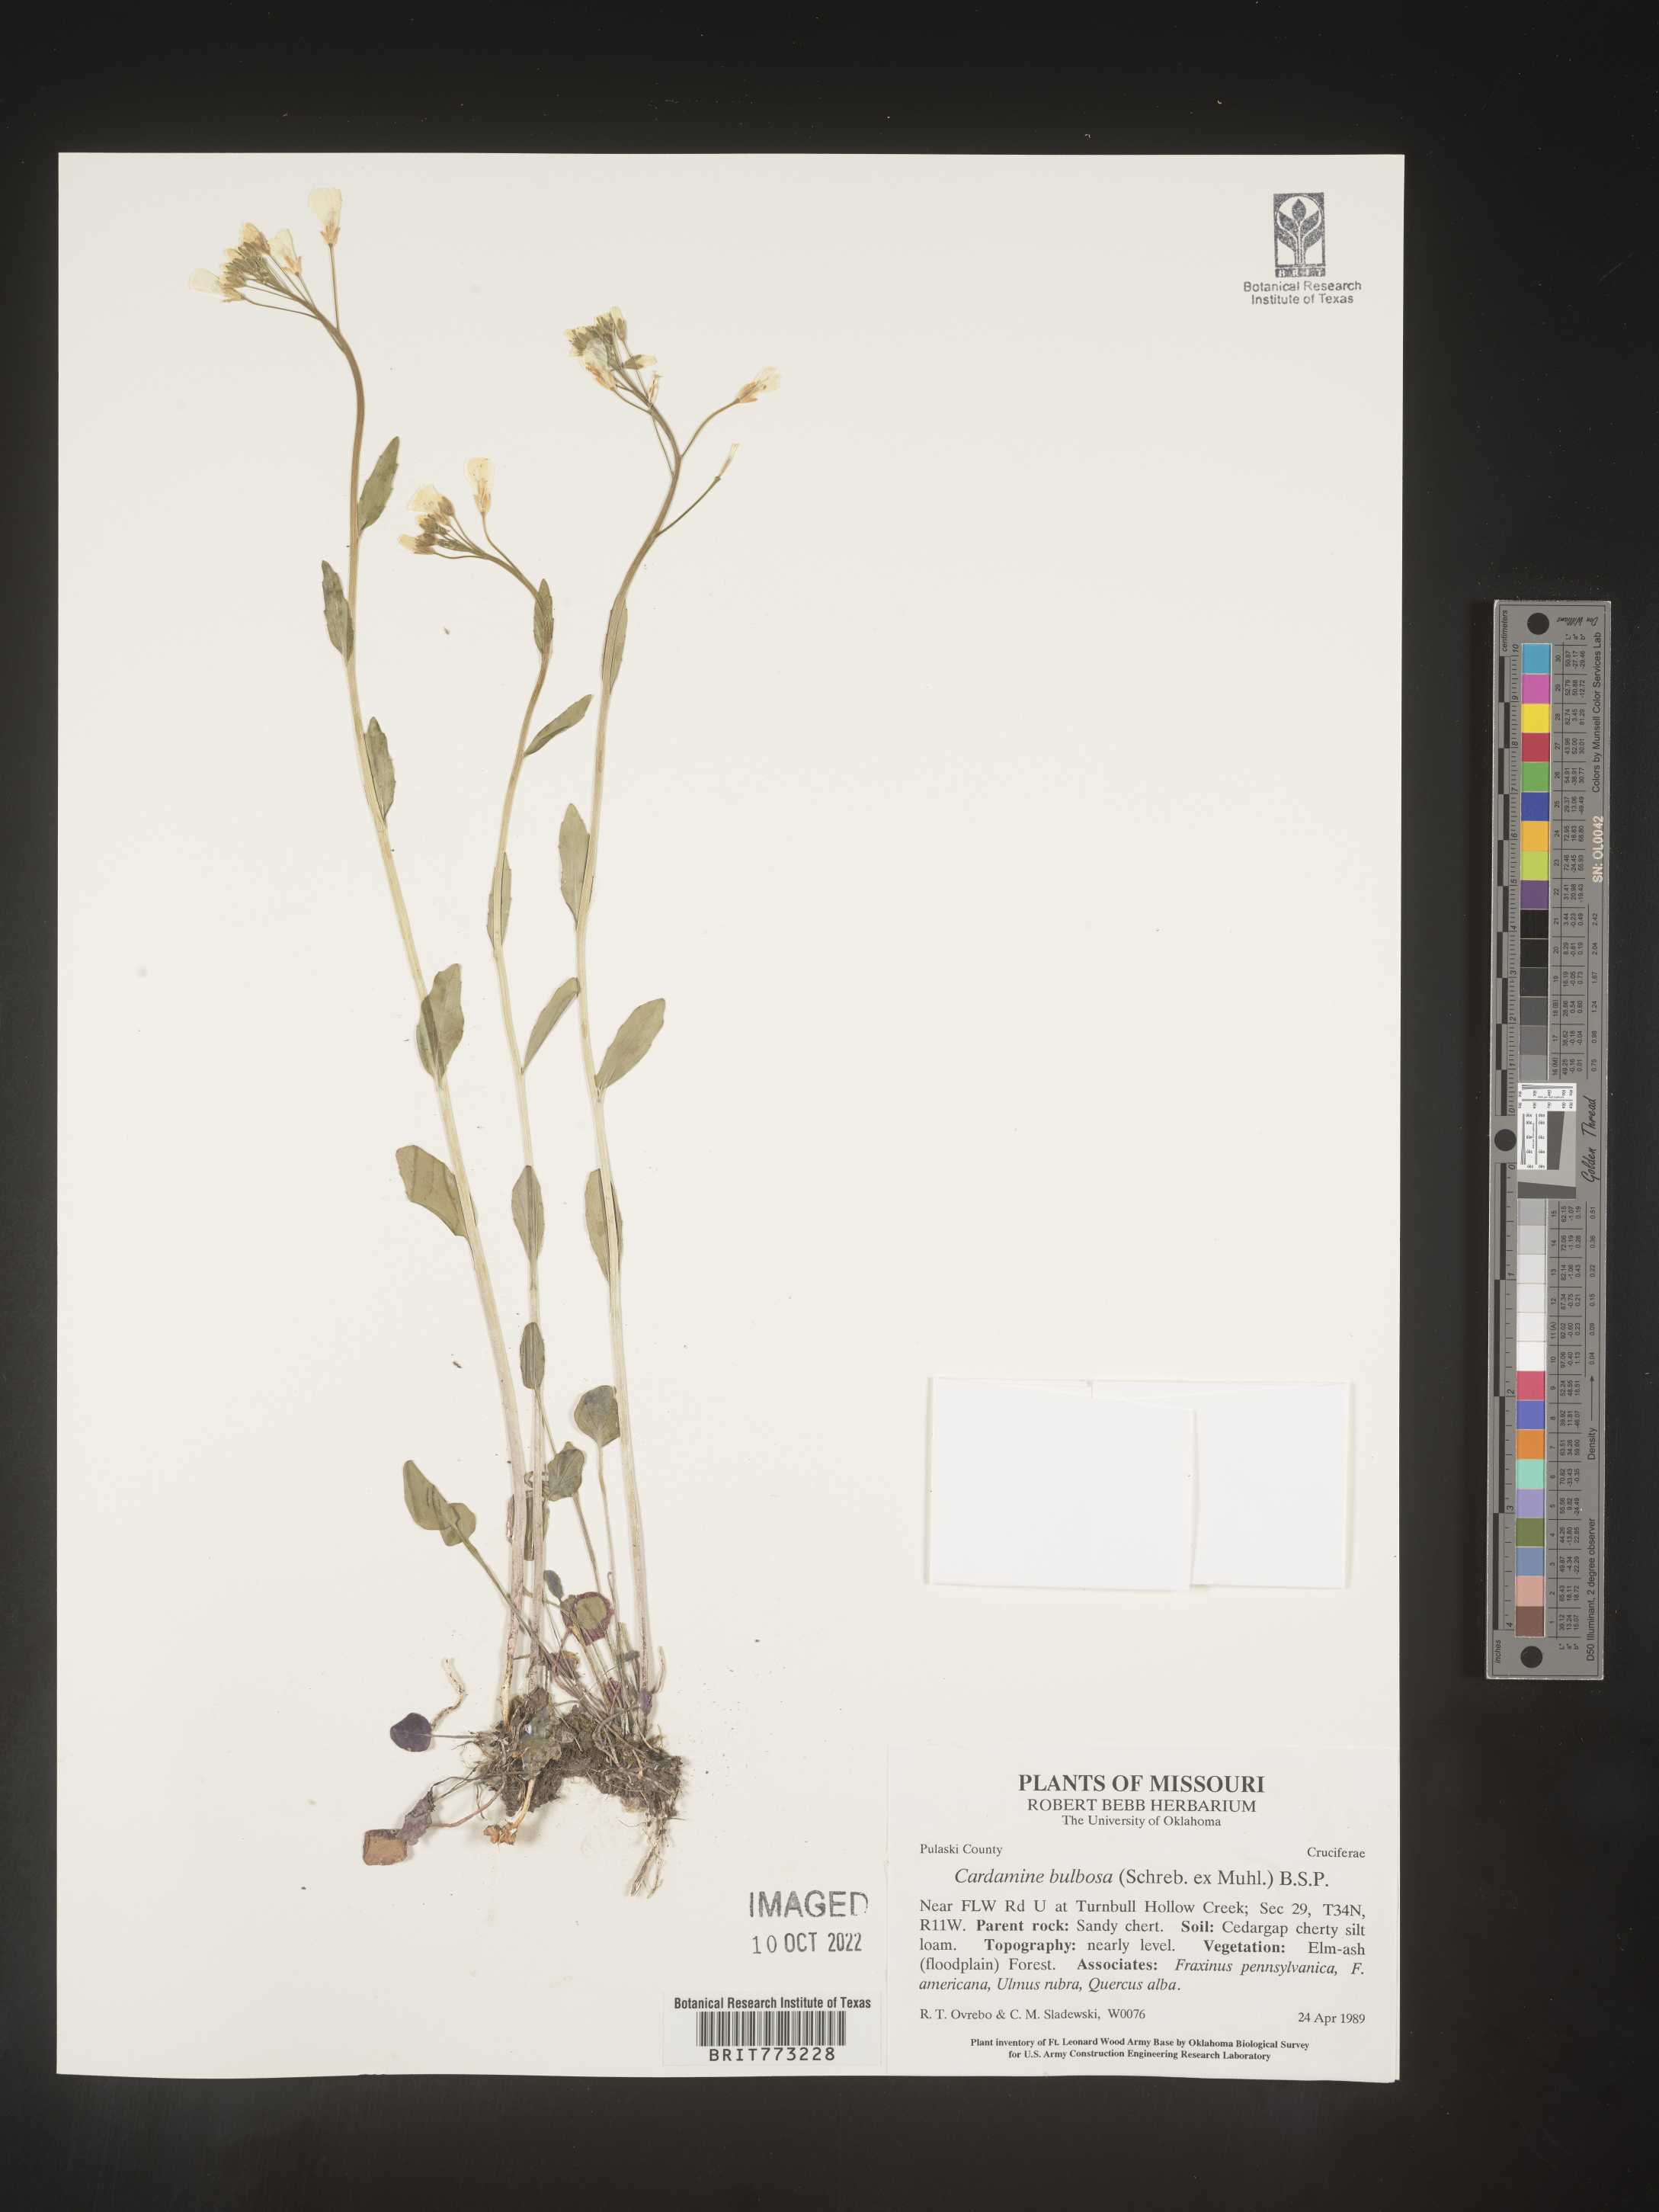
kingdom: Plantae
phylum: Tracheophyta
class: Magnoliopsida
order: Brassicales
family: Brassicaceae
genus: Cardamine
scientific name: Cardamine bulbosa
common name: Spring cress
